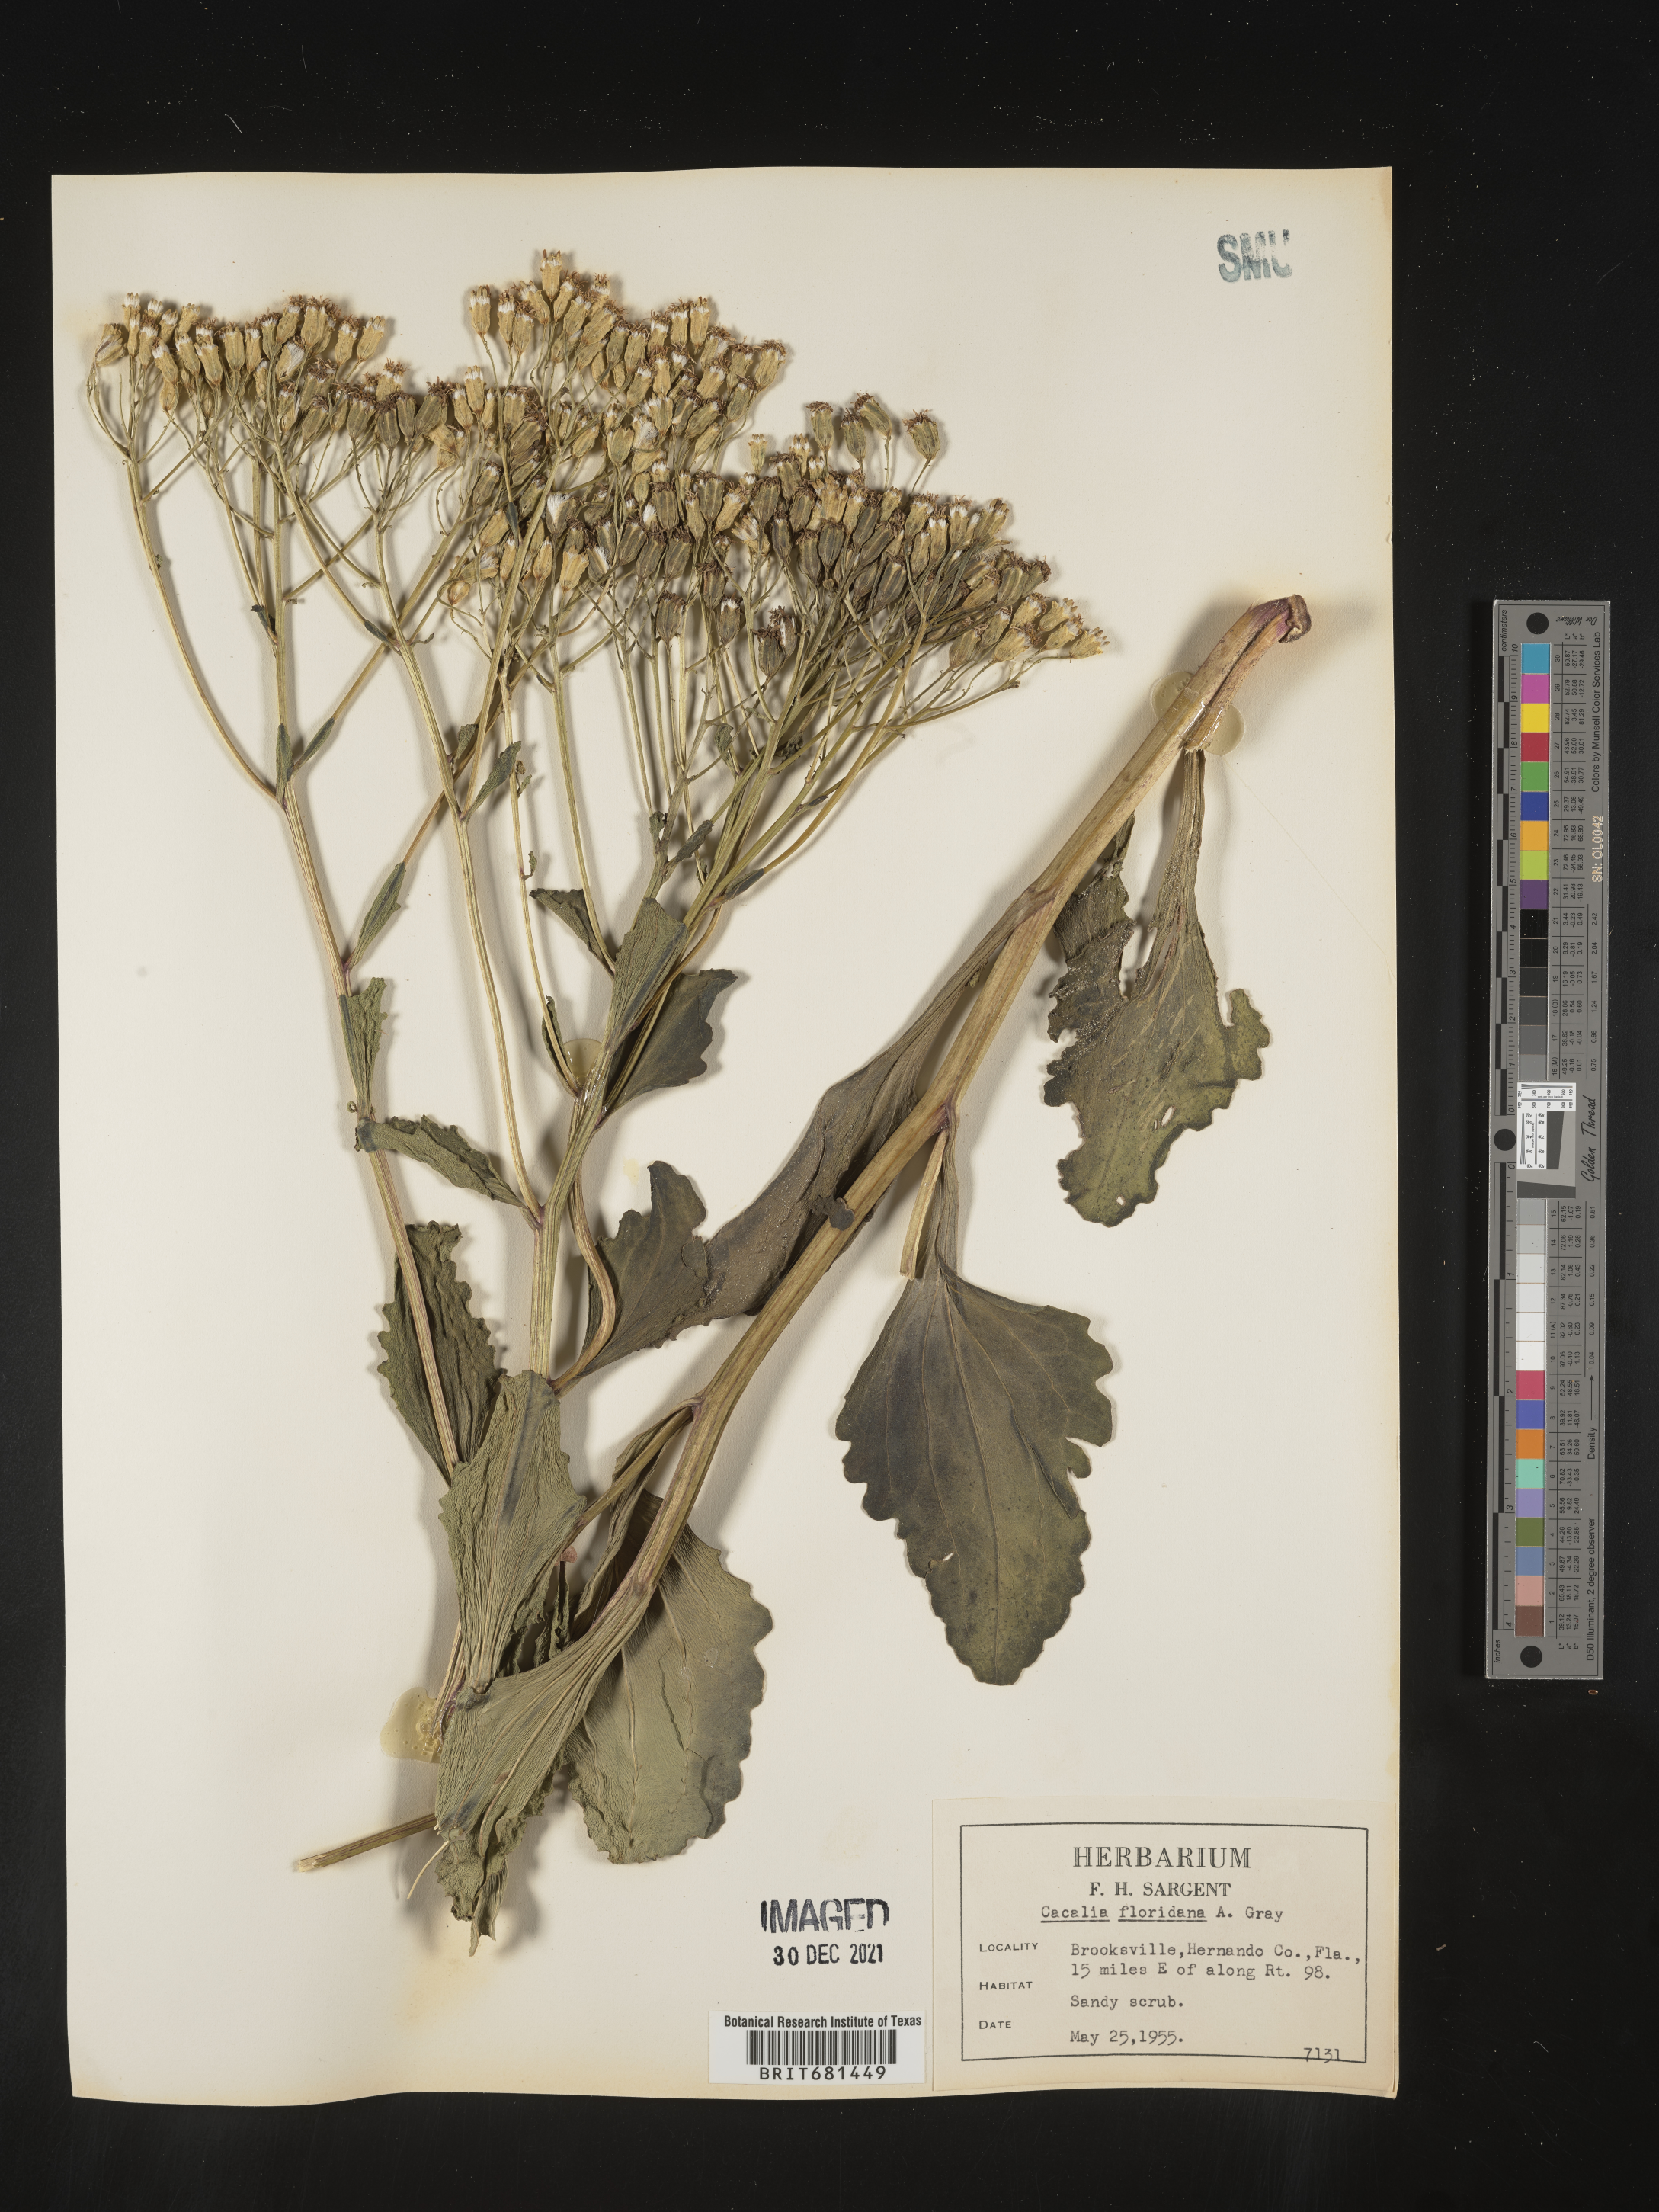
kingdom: Plantae
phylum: Tracheophyta
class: Magnoliopsida
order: Asterales
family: Asteraceae
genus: Arnoglossum
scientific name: Arnoglossum floridanum
